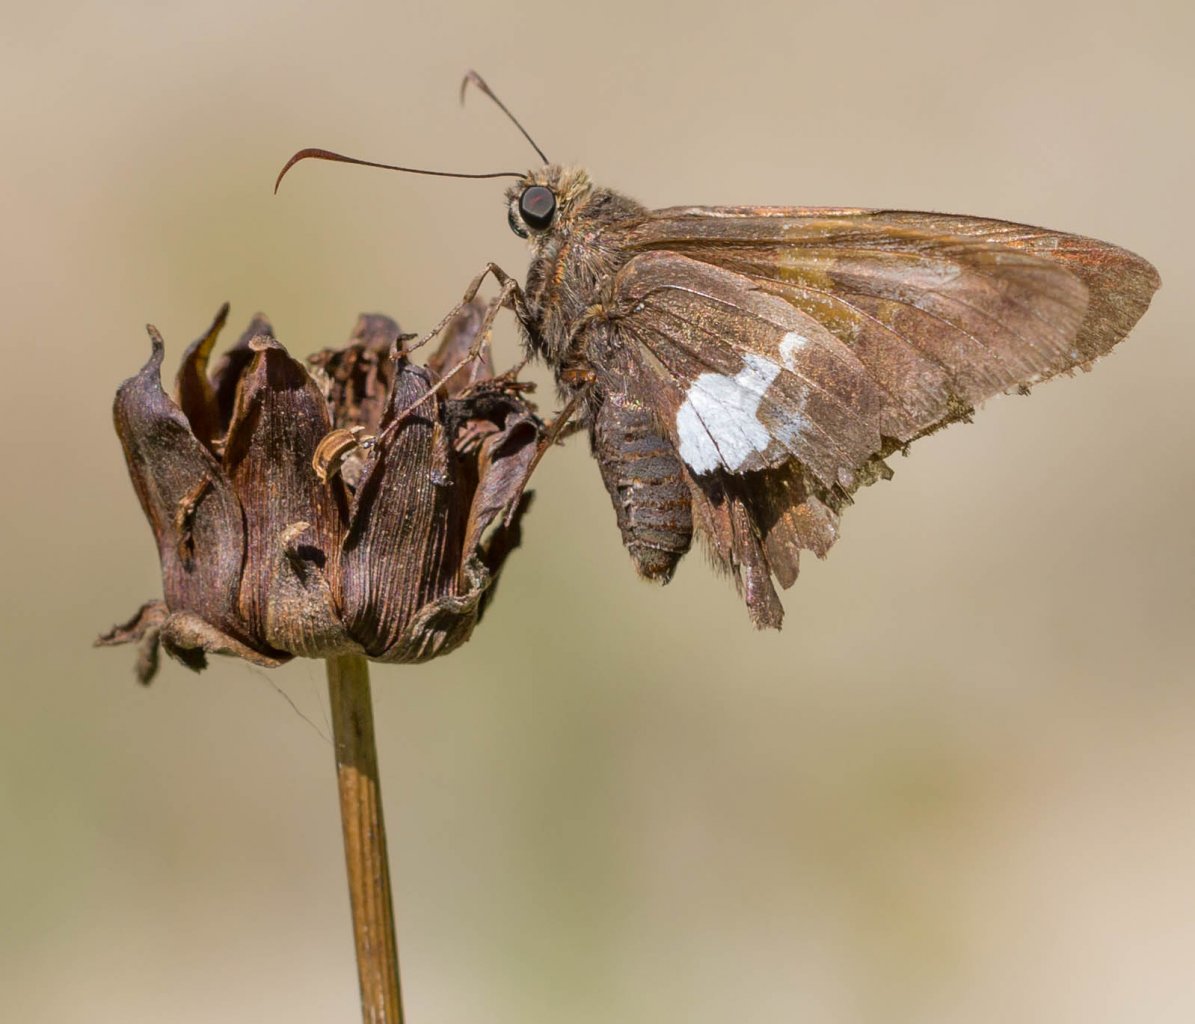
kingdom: Animalia
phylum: Arthropoda
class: Insecta
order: Lepidoptera
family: Hesperiidae
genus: Epargyreus
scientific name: Epargyreus clarus
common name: Silver-spotted Skipper
